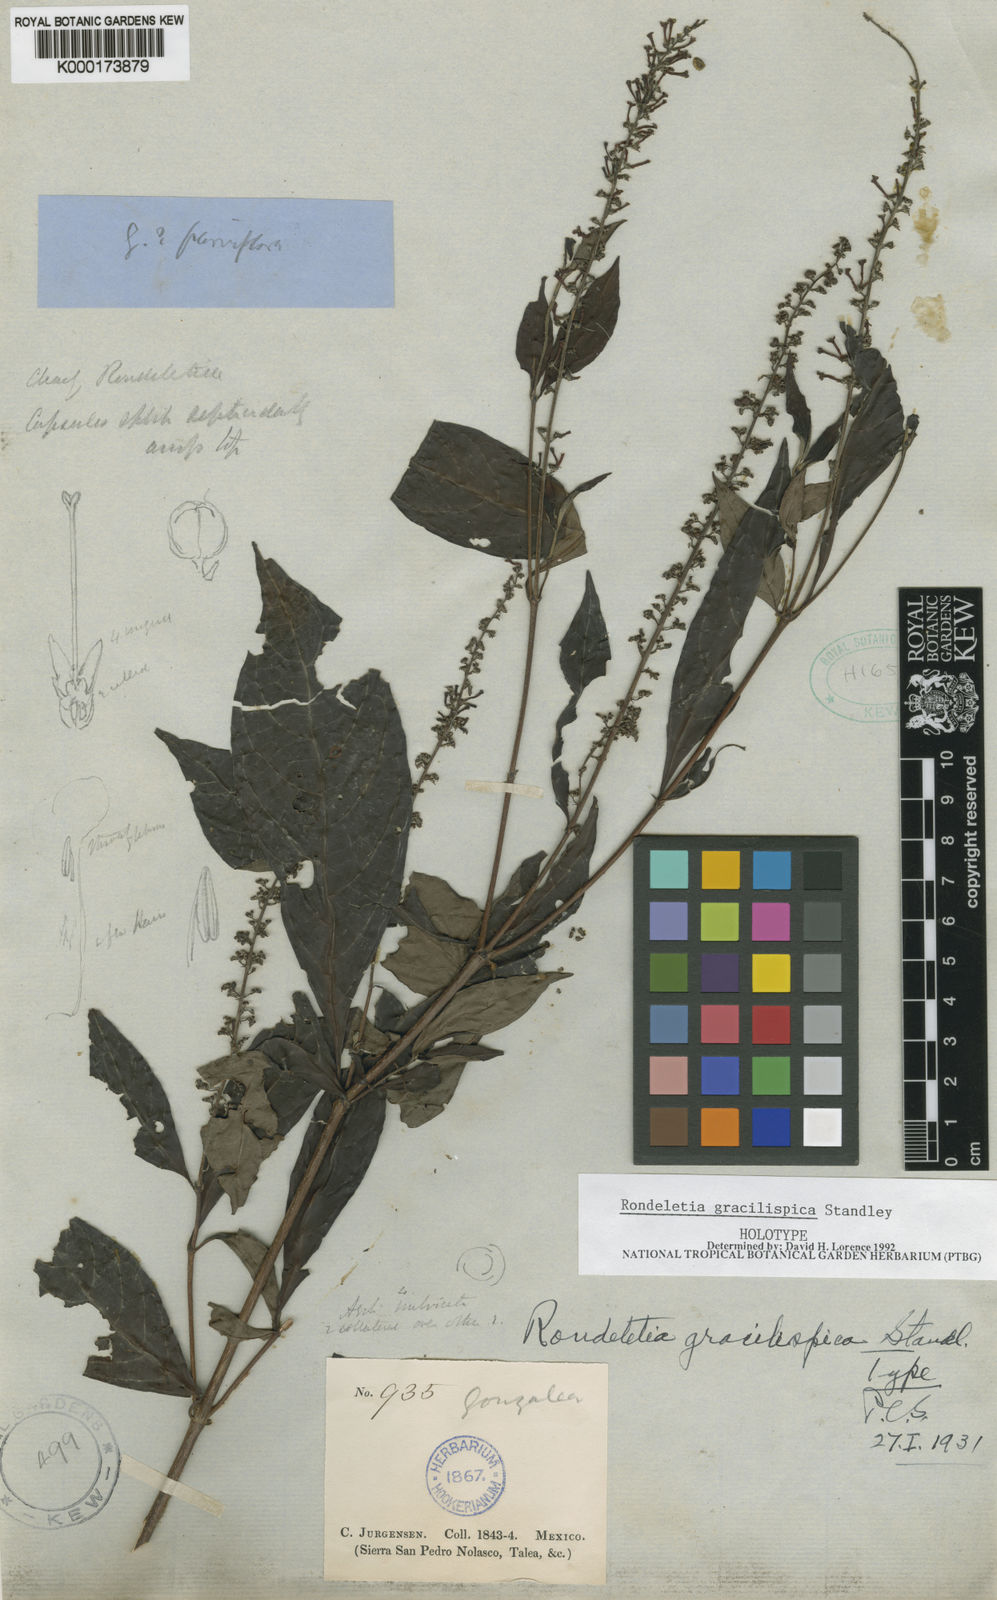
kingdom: Plantae
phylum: Tracheophyta
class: Magnoliopsida
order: Gentianales
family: Rubiaceae
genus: Arachnothryx
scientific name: Arachnothryx gracilispica
